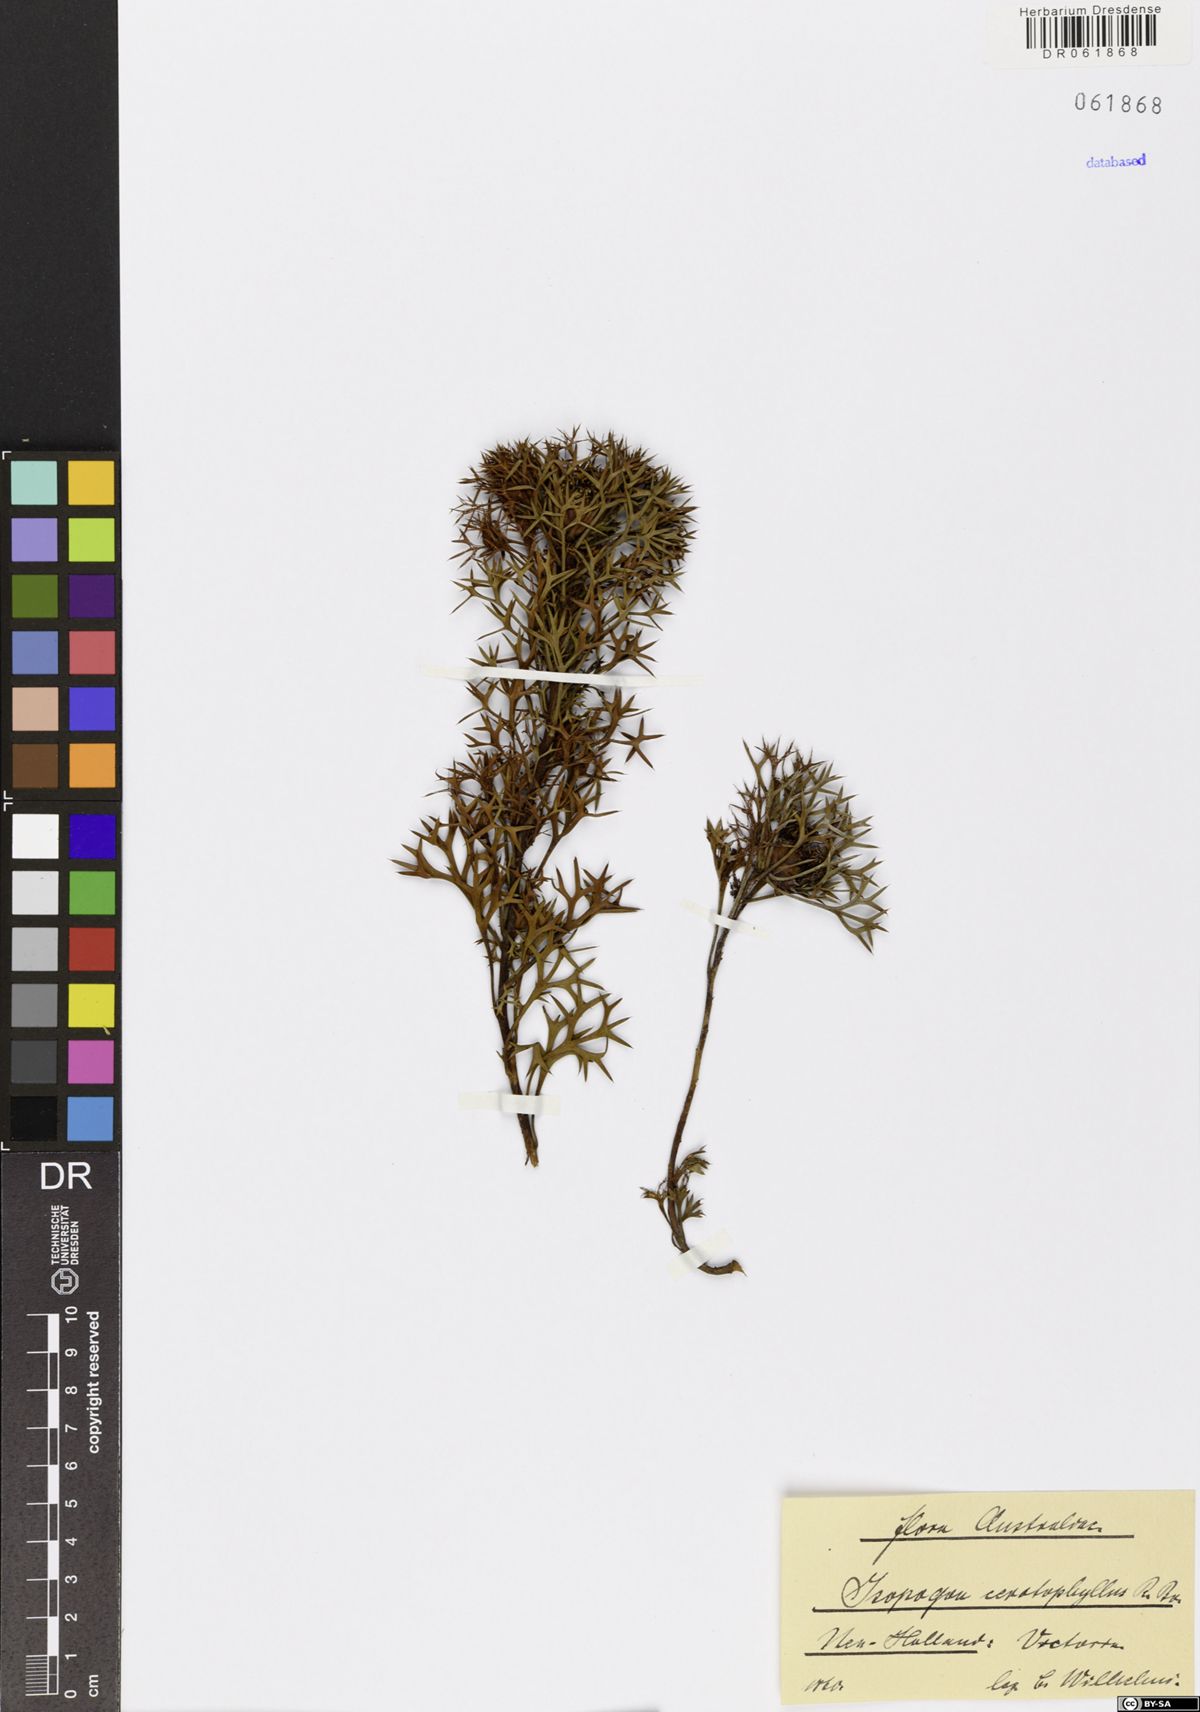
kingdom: Plantae
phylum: Tracheophyta
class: Magnoliopsida
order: Proteales
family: Proteaceae
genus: Isopogon
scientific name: Isopogon ceratophyllus
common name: Horny cone-bush
